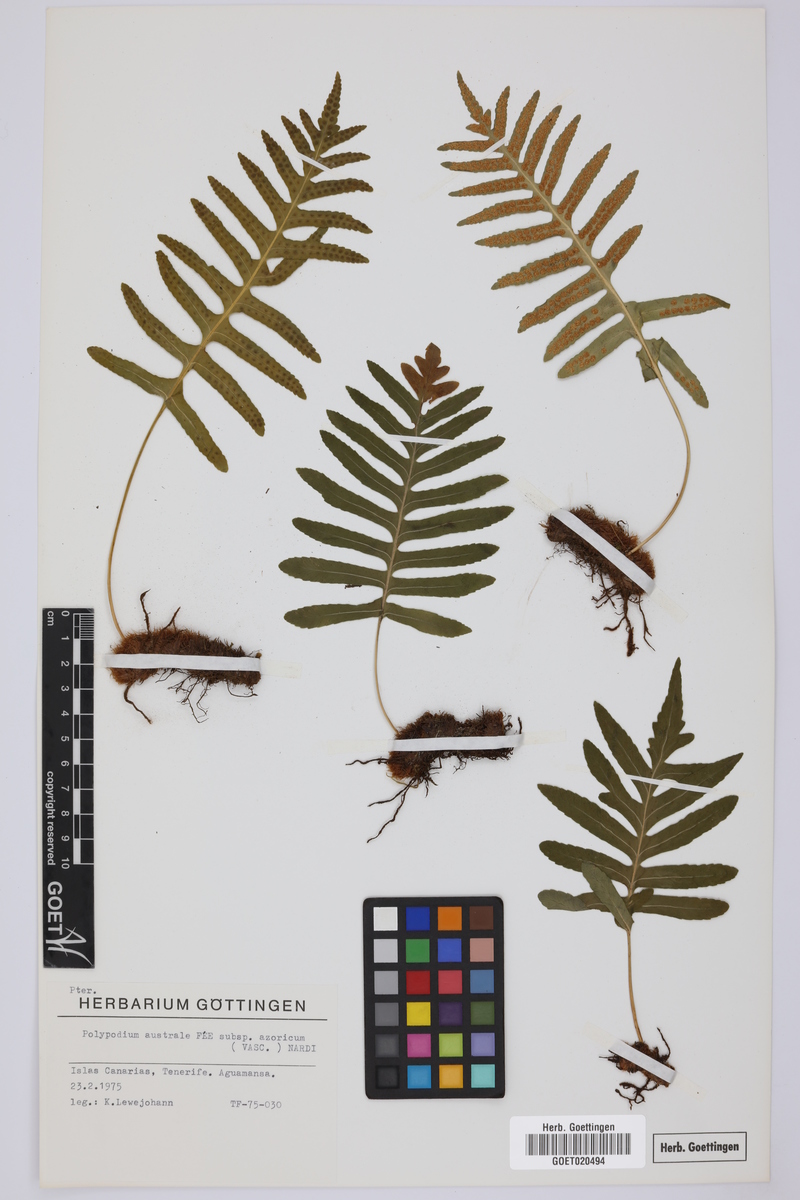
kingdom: Plantae
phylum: Tracheophyta
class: Polypodiopsida
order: Polypodiales
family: Polypodiaceae
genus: Polypodium
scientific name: Polypodium macaronesicum
